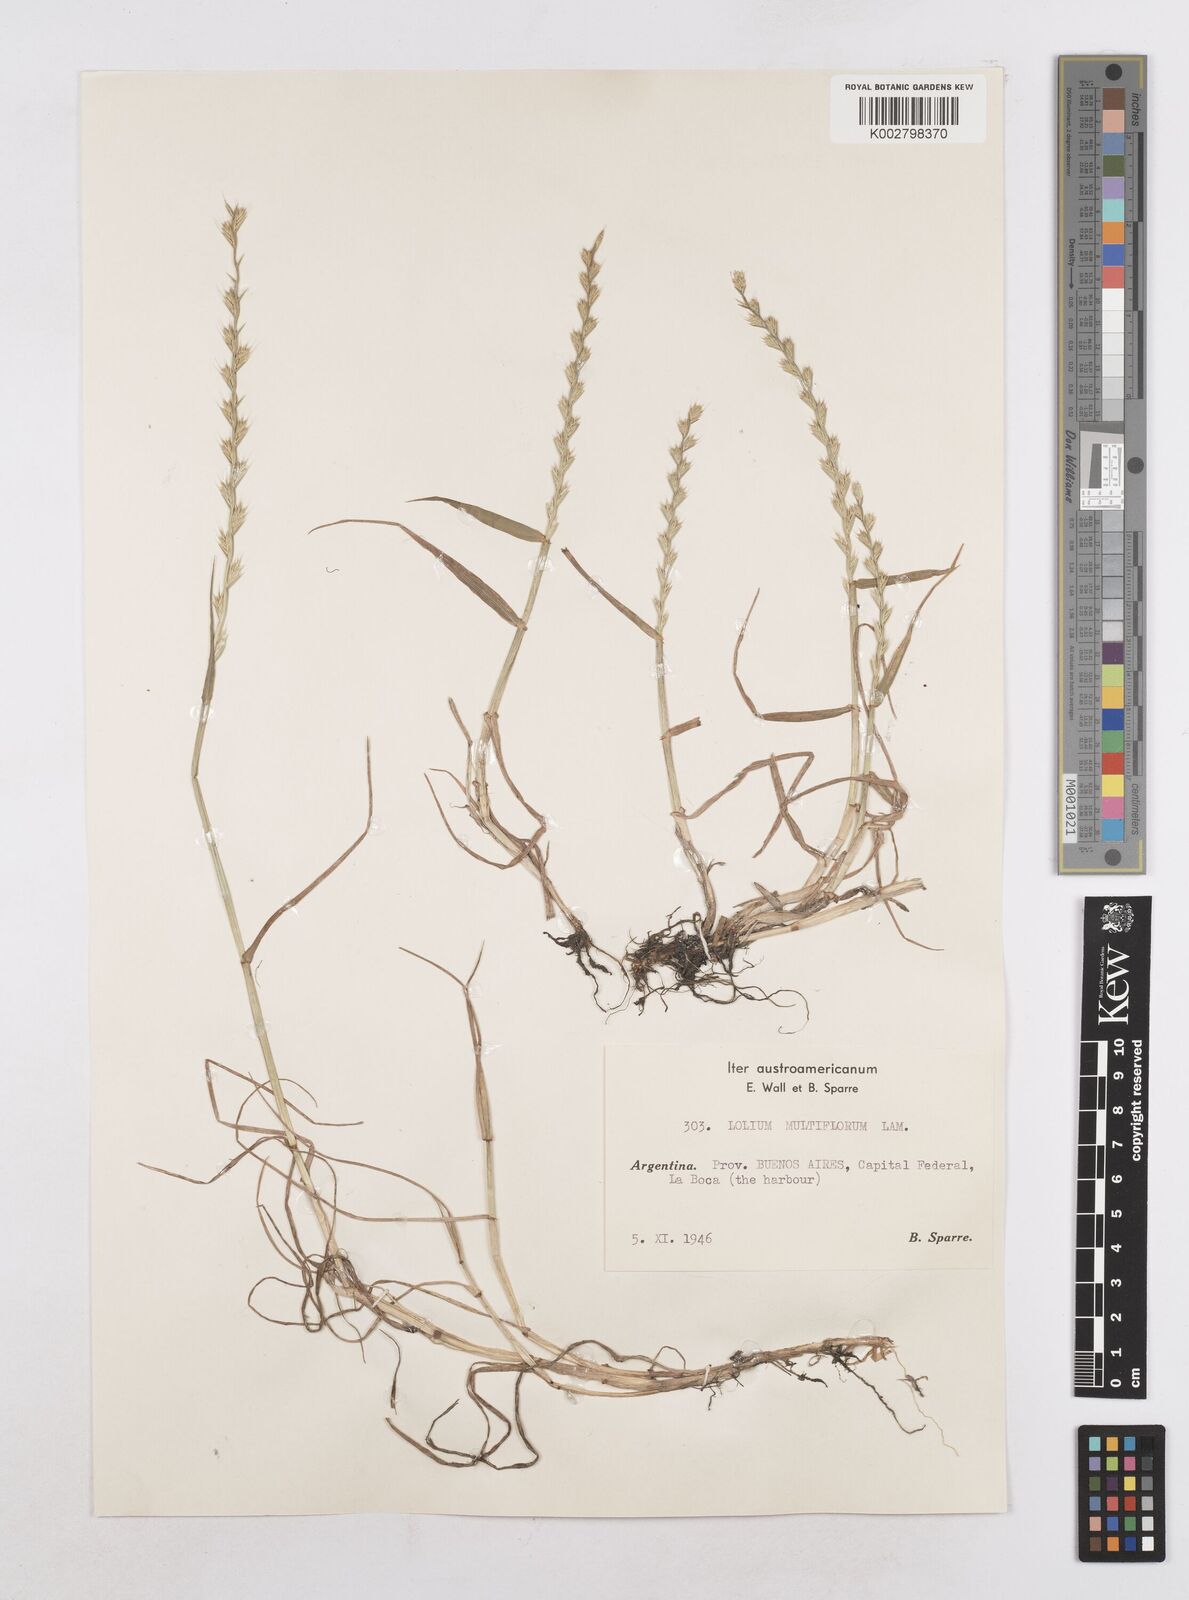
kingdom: Plantae
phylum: Tracheophyta
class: Liliopsida
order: Poales
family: Poaceae
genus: Lolium
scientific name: Lolium multiflorum
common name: Annual ryegrass
